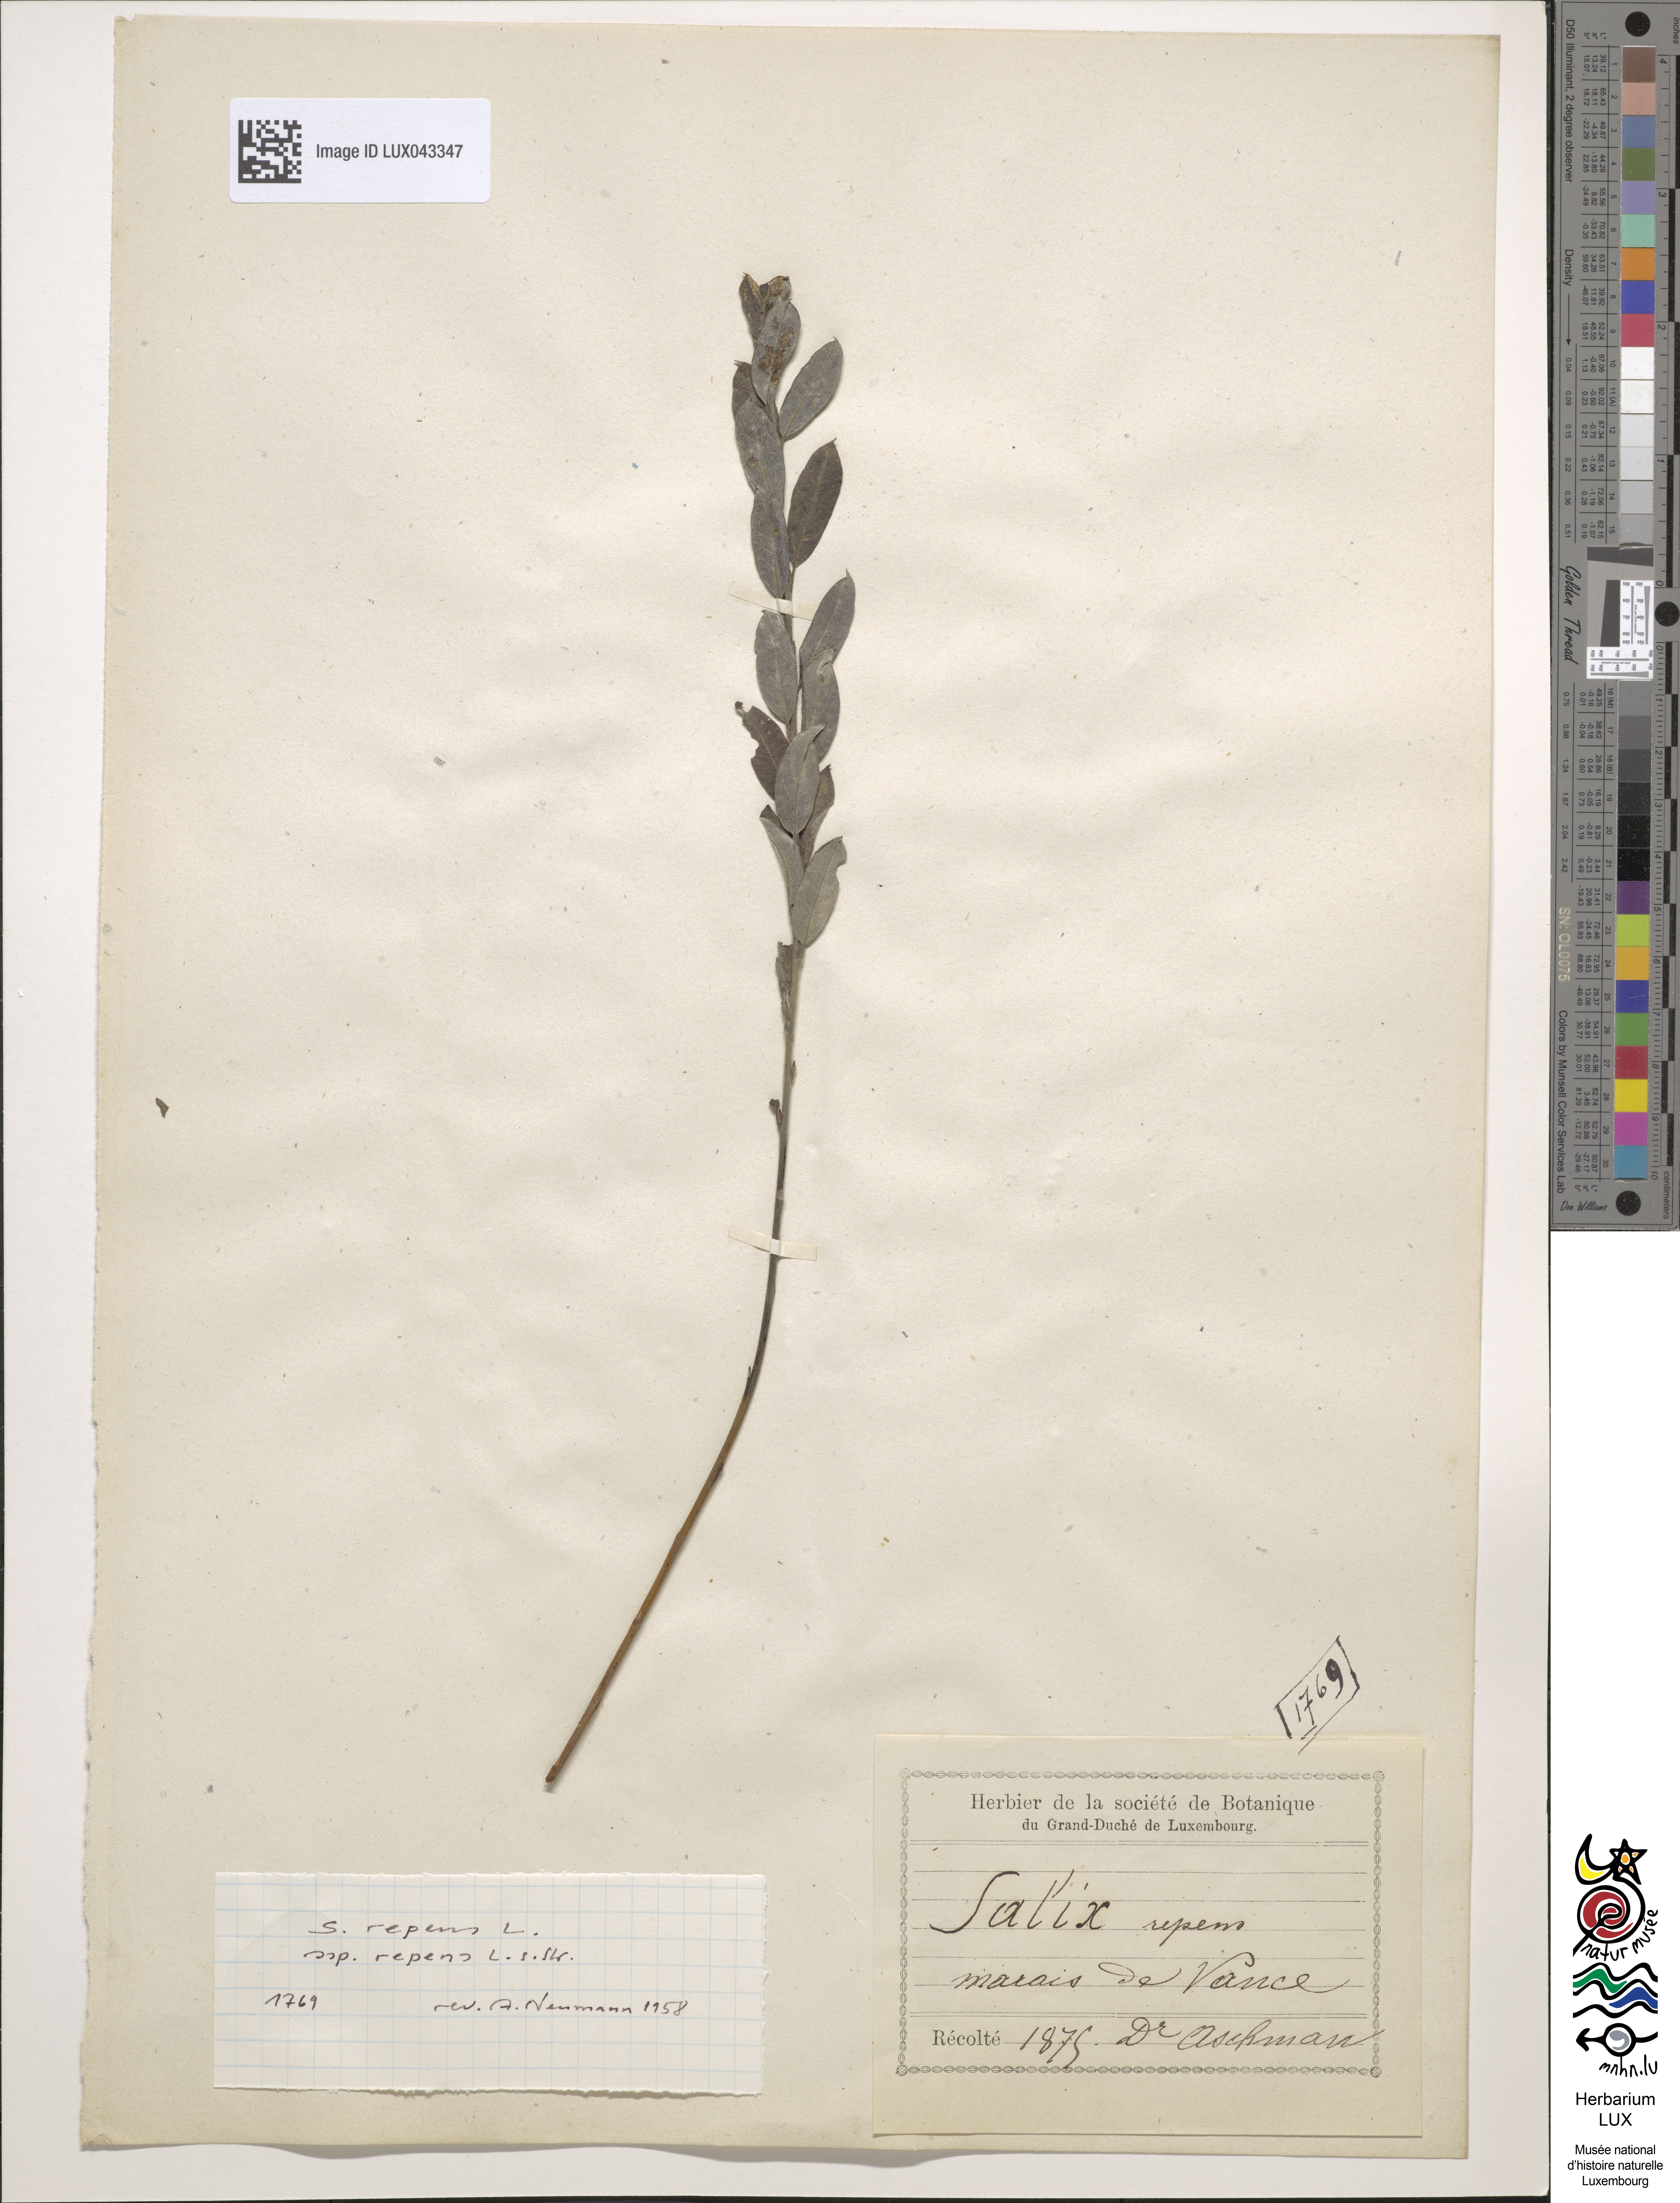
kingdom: Plantae
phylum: Tracheophyta
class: Magnoliopsida
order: Malpighiales
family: Salicaceae
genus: Salix
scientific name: Salix repens
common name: Creeping willow
